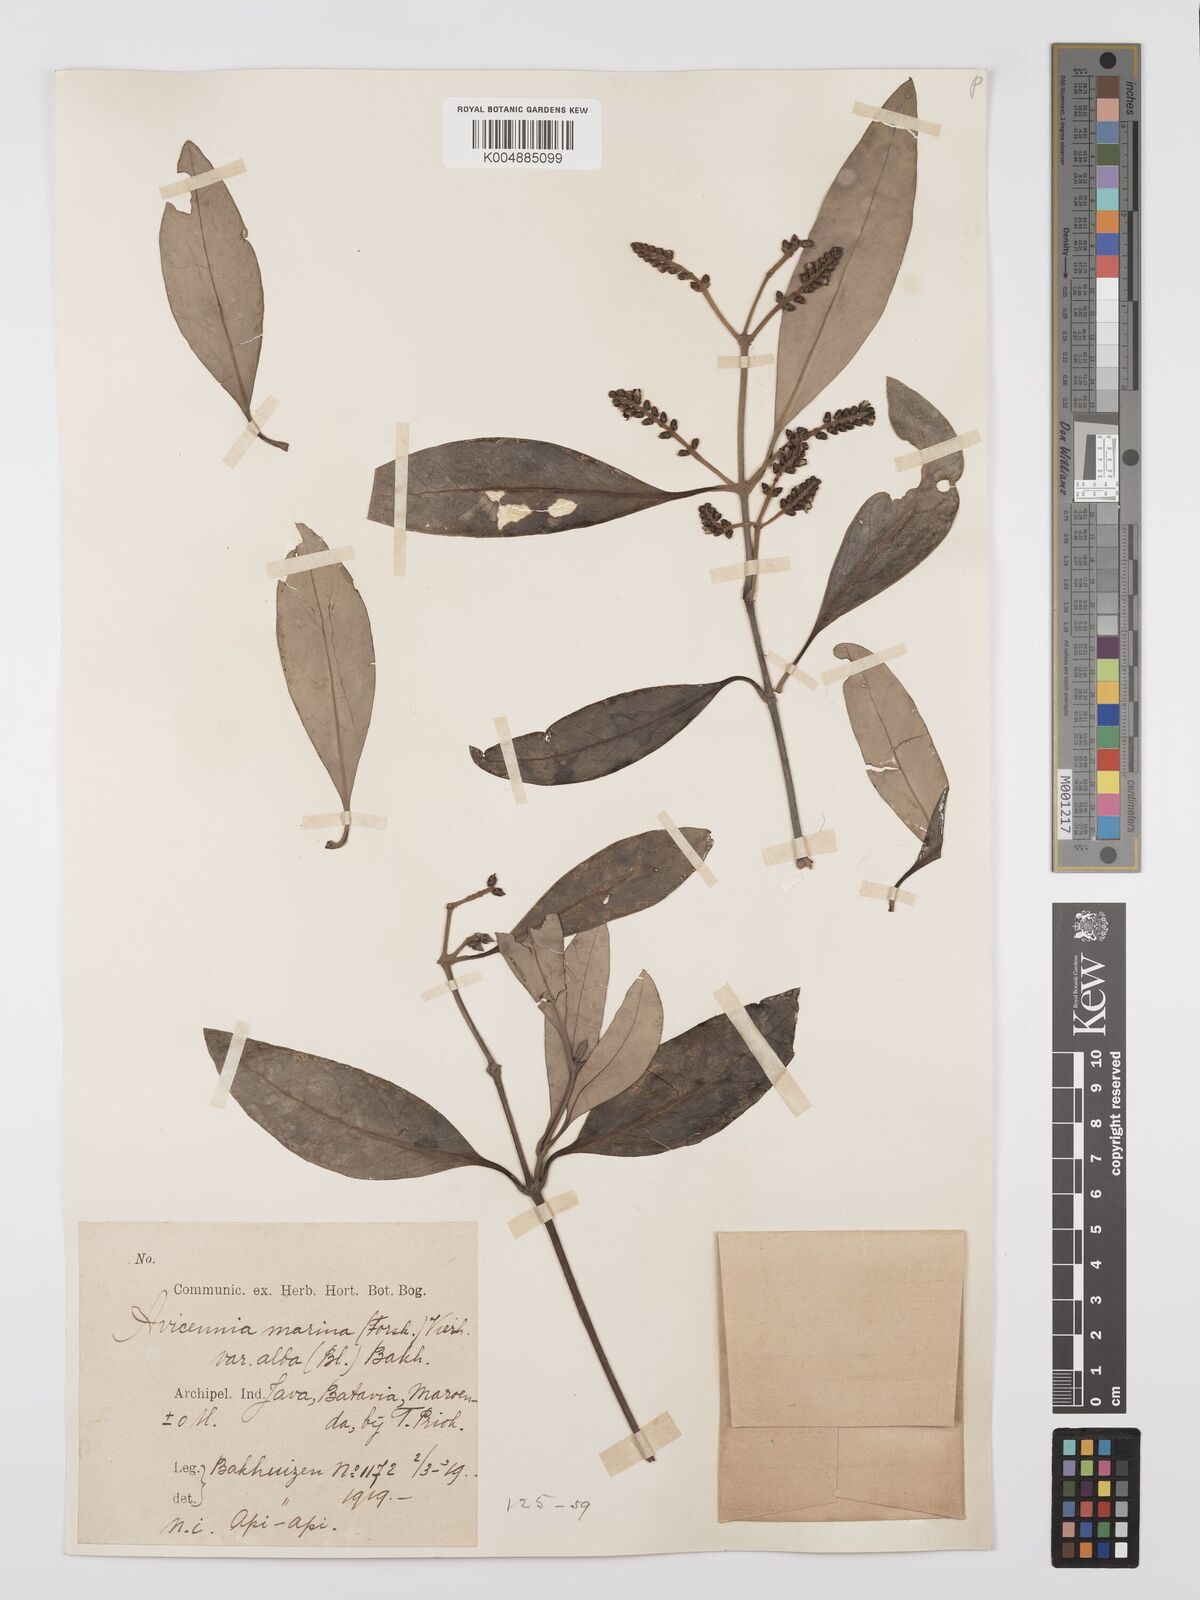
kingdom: Plantae
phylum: Tracheophyta
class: Magnoliopsida
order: Lamiales
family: Acanthaceae
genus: Avicennia
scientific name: Avicennia alba
